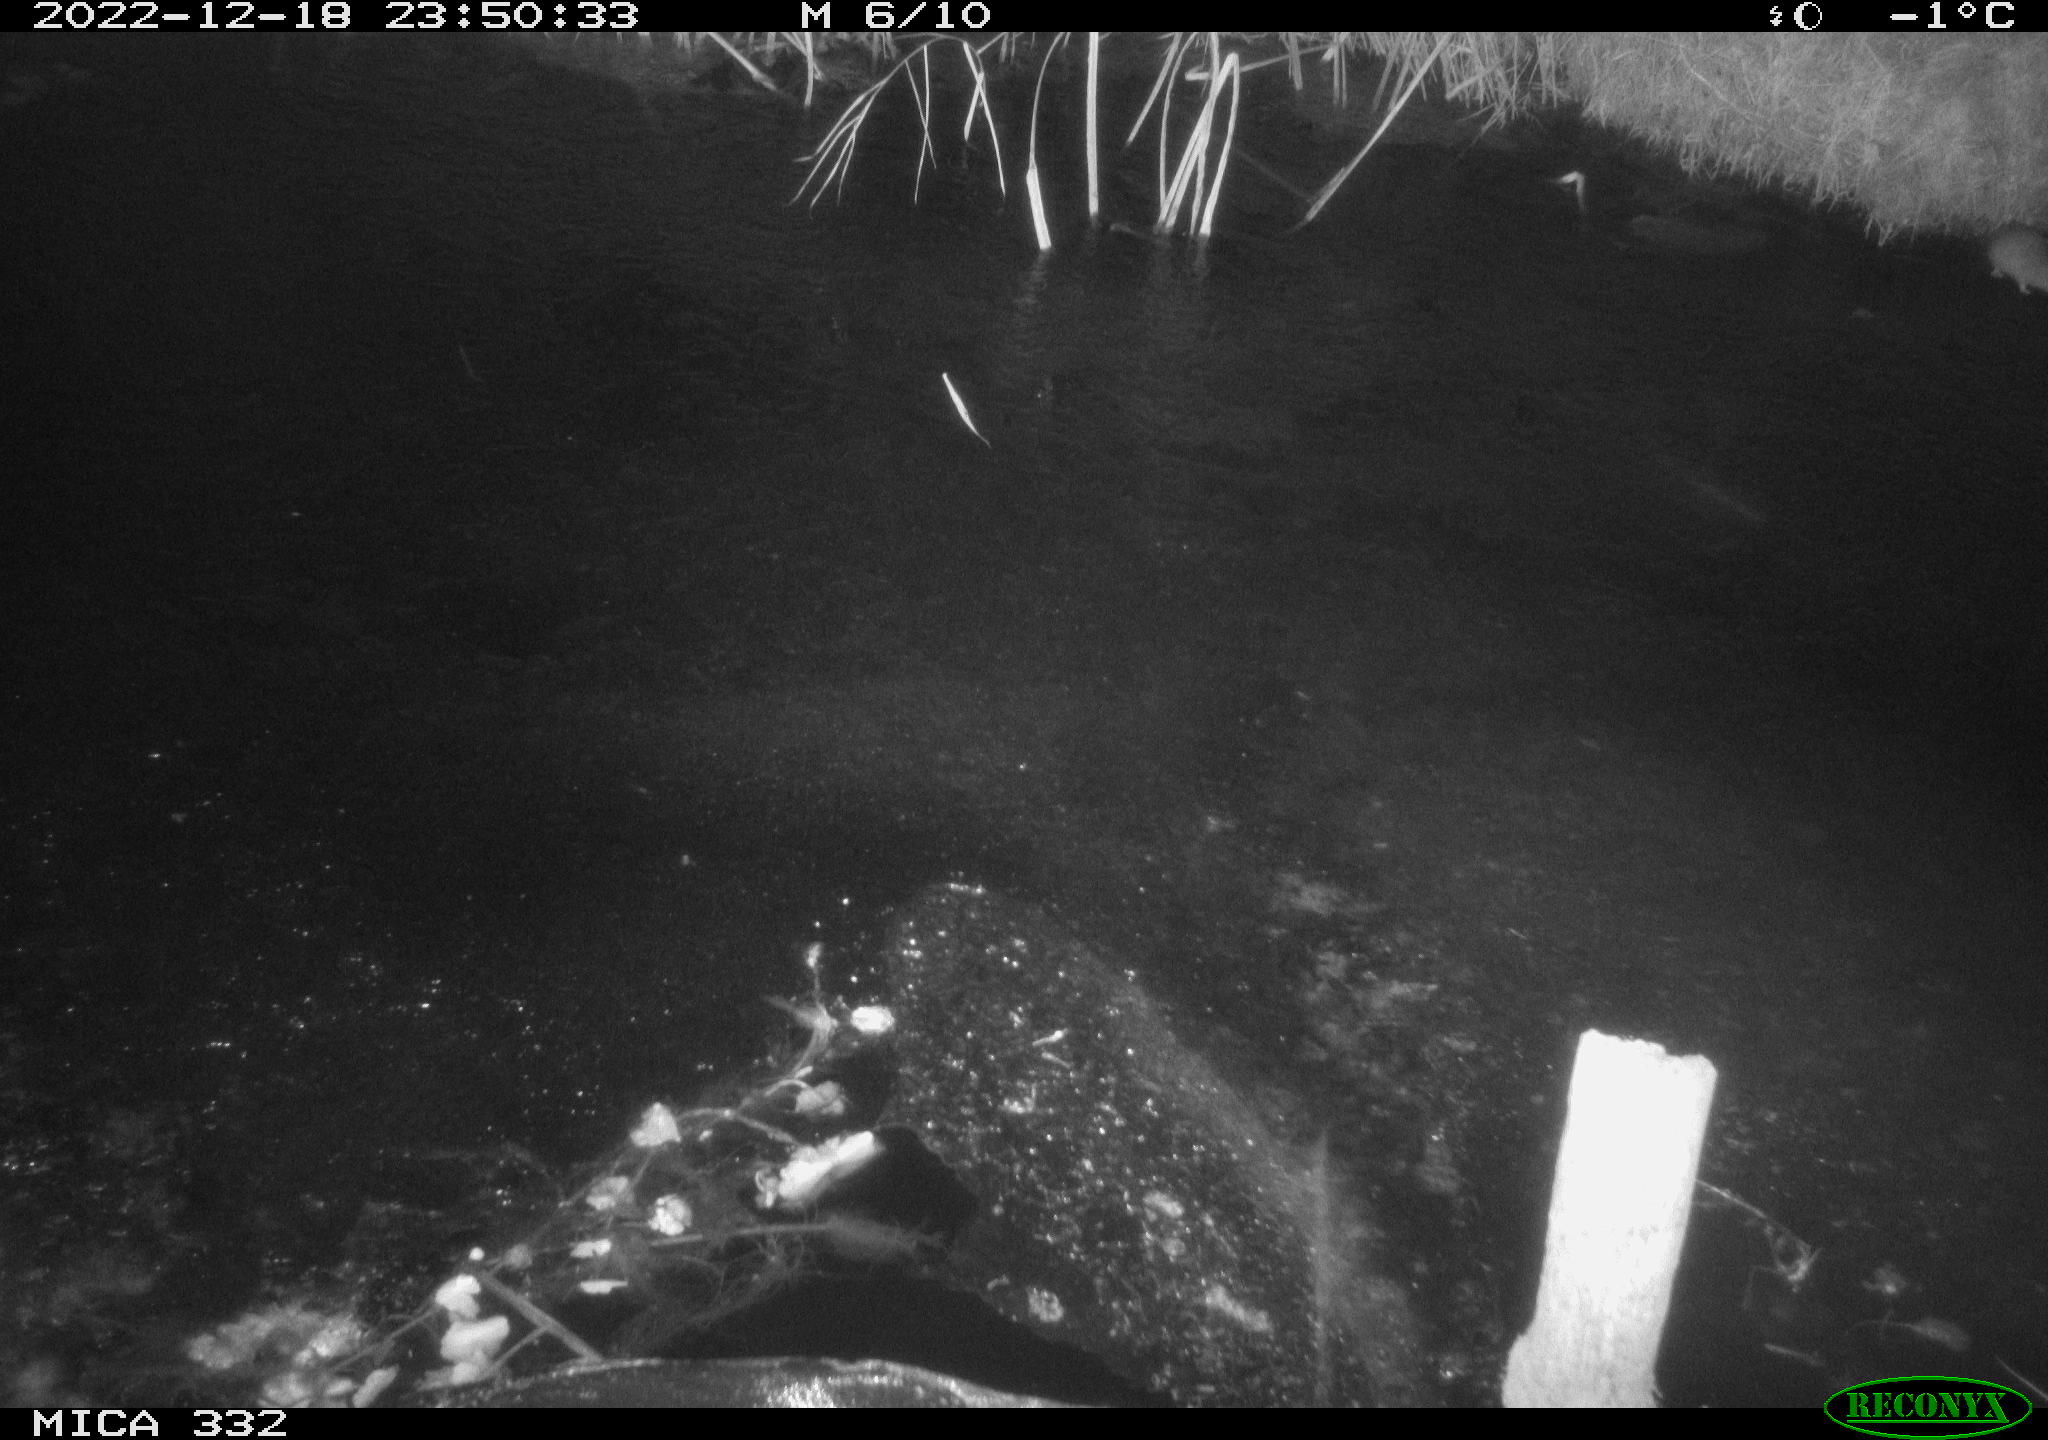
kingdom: Animalia
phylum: Chordata
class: Mammalia
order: Rodentia
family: Muridae
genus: Rattus
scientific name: Rattus norvegicus
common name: Brown rat
